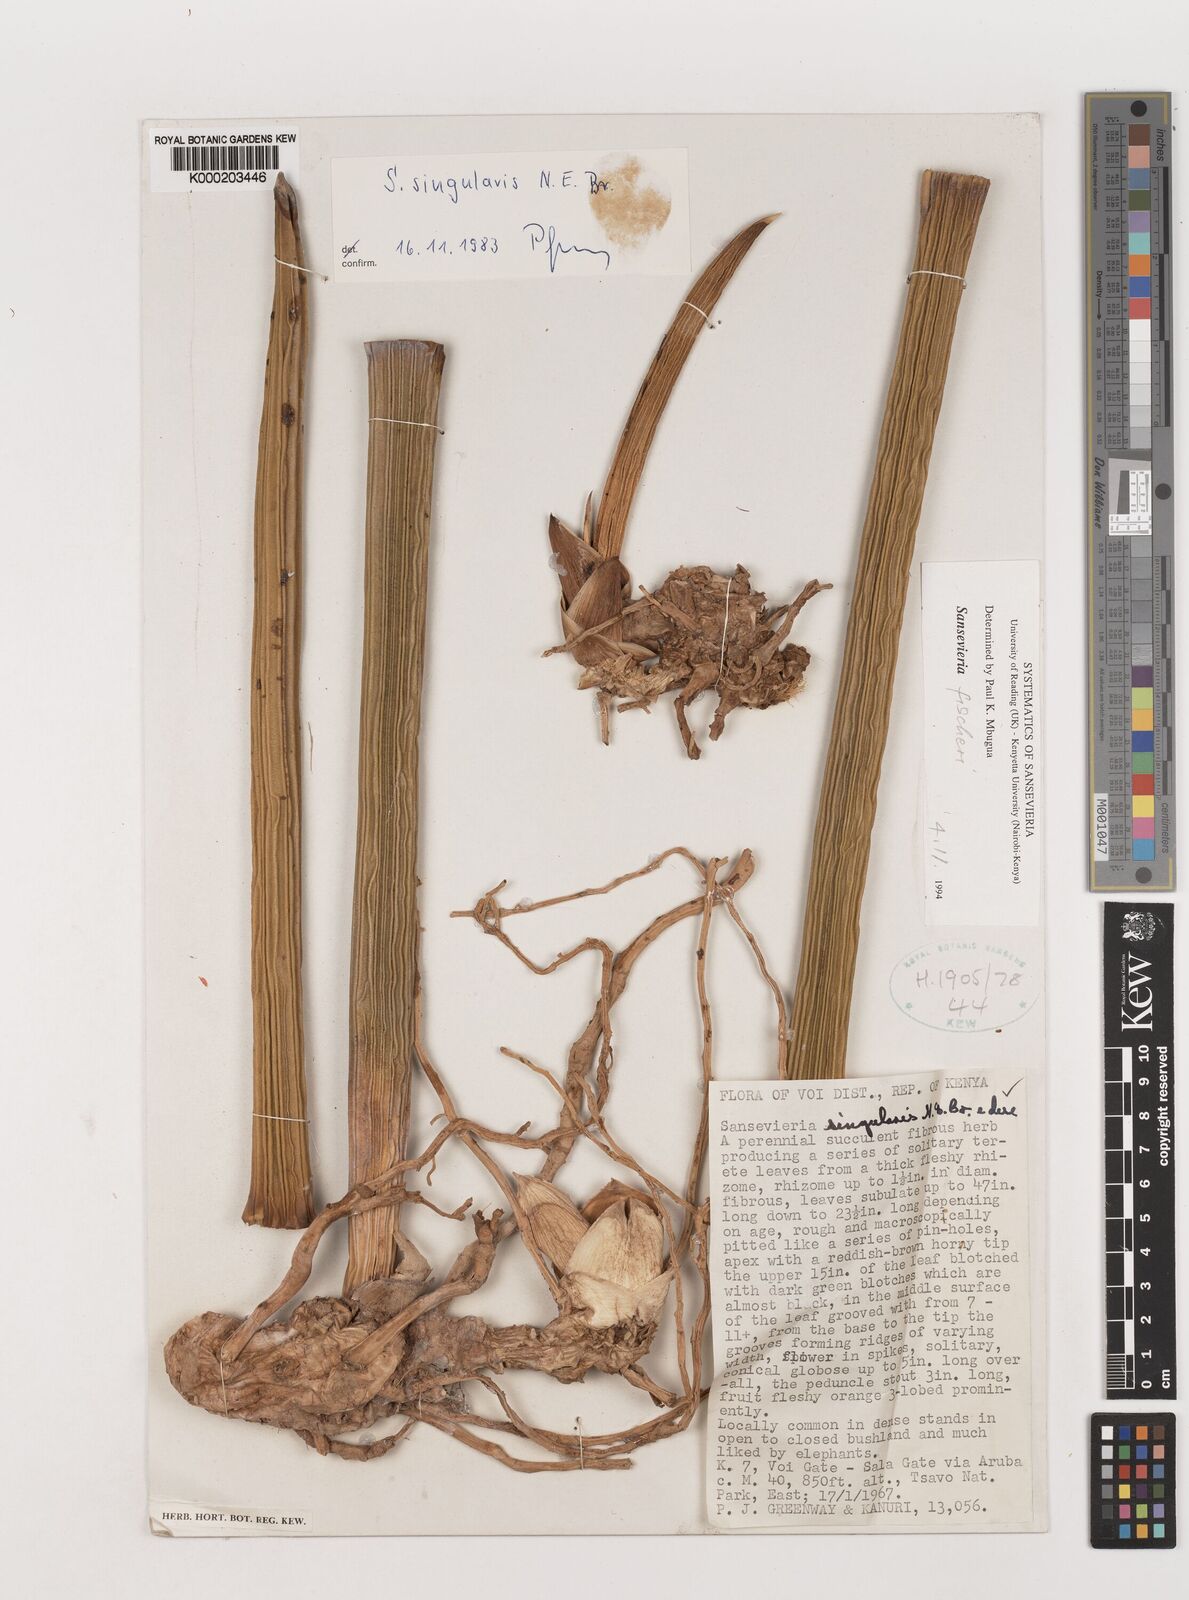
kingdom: Plantae
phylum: Tracheophyta
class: Liliopsida
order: Asparagales
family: Asparagaceae
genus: Dracaena
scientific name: Dracaena singularis
